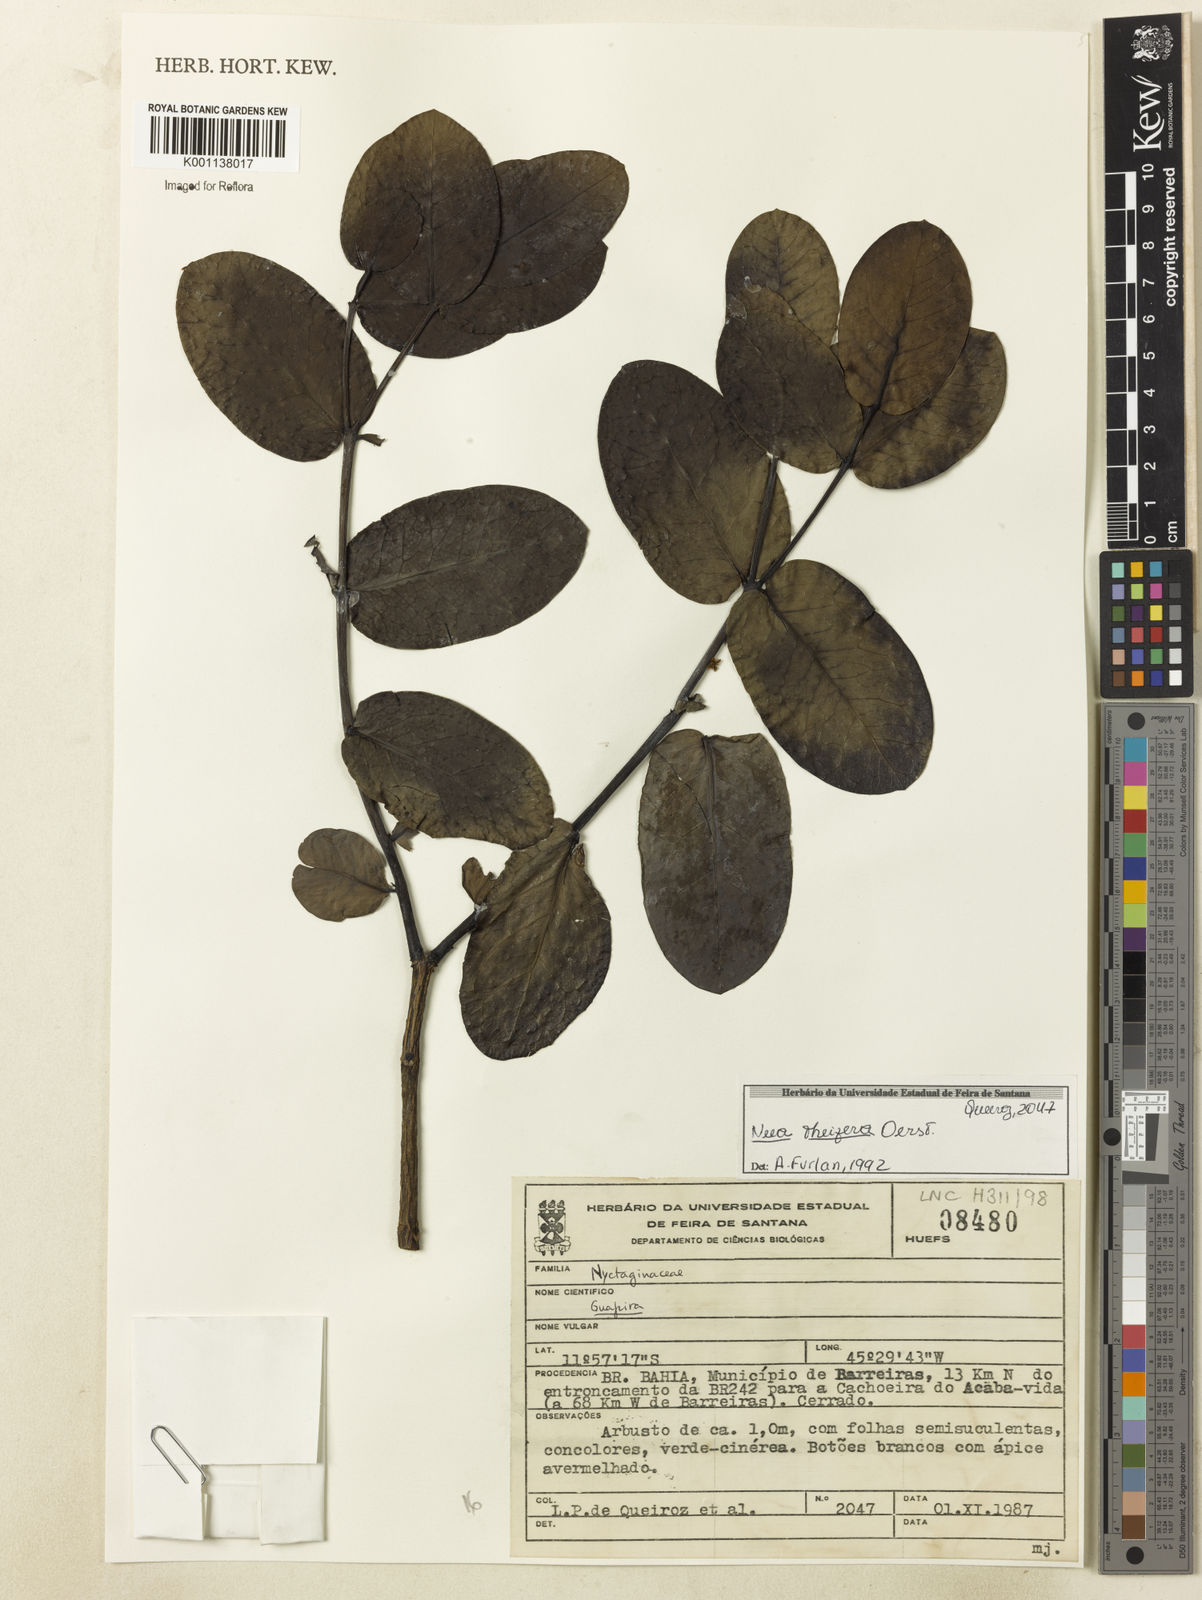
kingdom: Plantae
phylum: Tracheophyta
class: Magnoliopsida
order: Caryophyllales
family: Nyctaginaceae
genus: Neea
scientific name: Neea theifera
